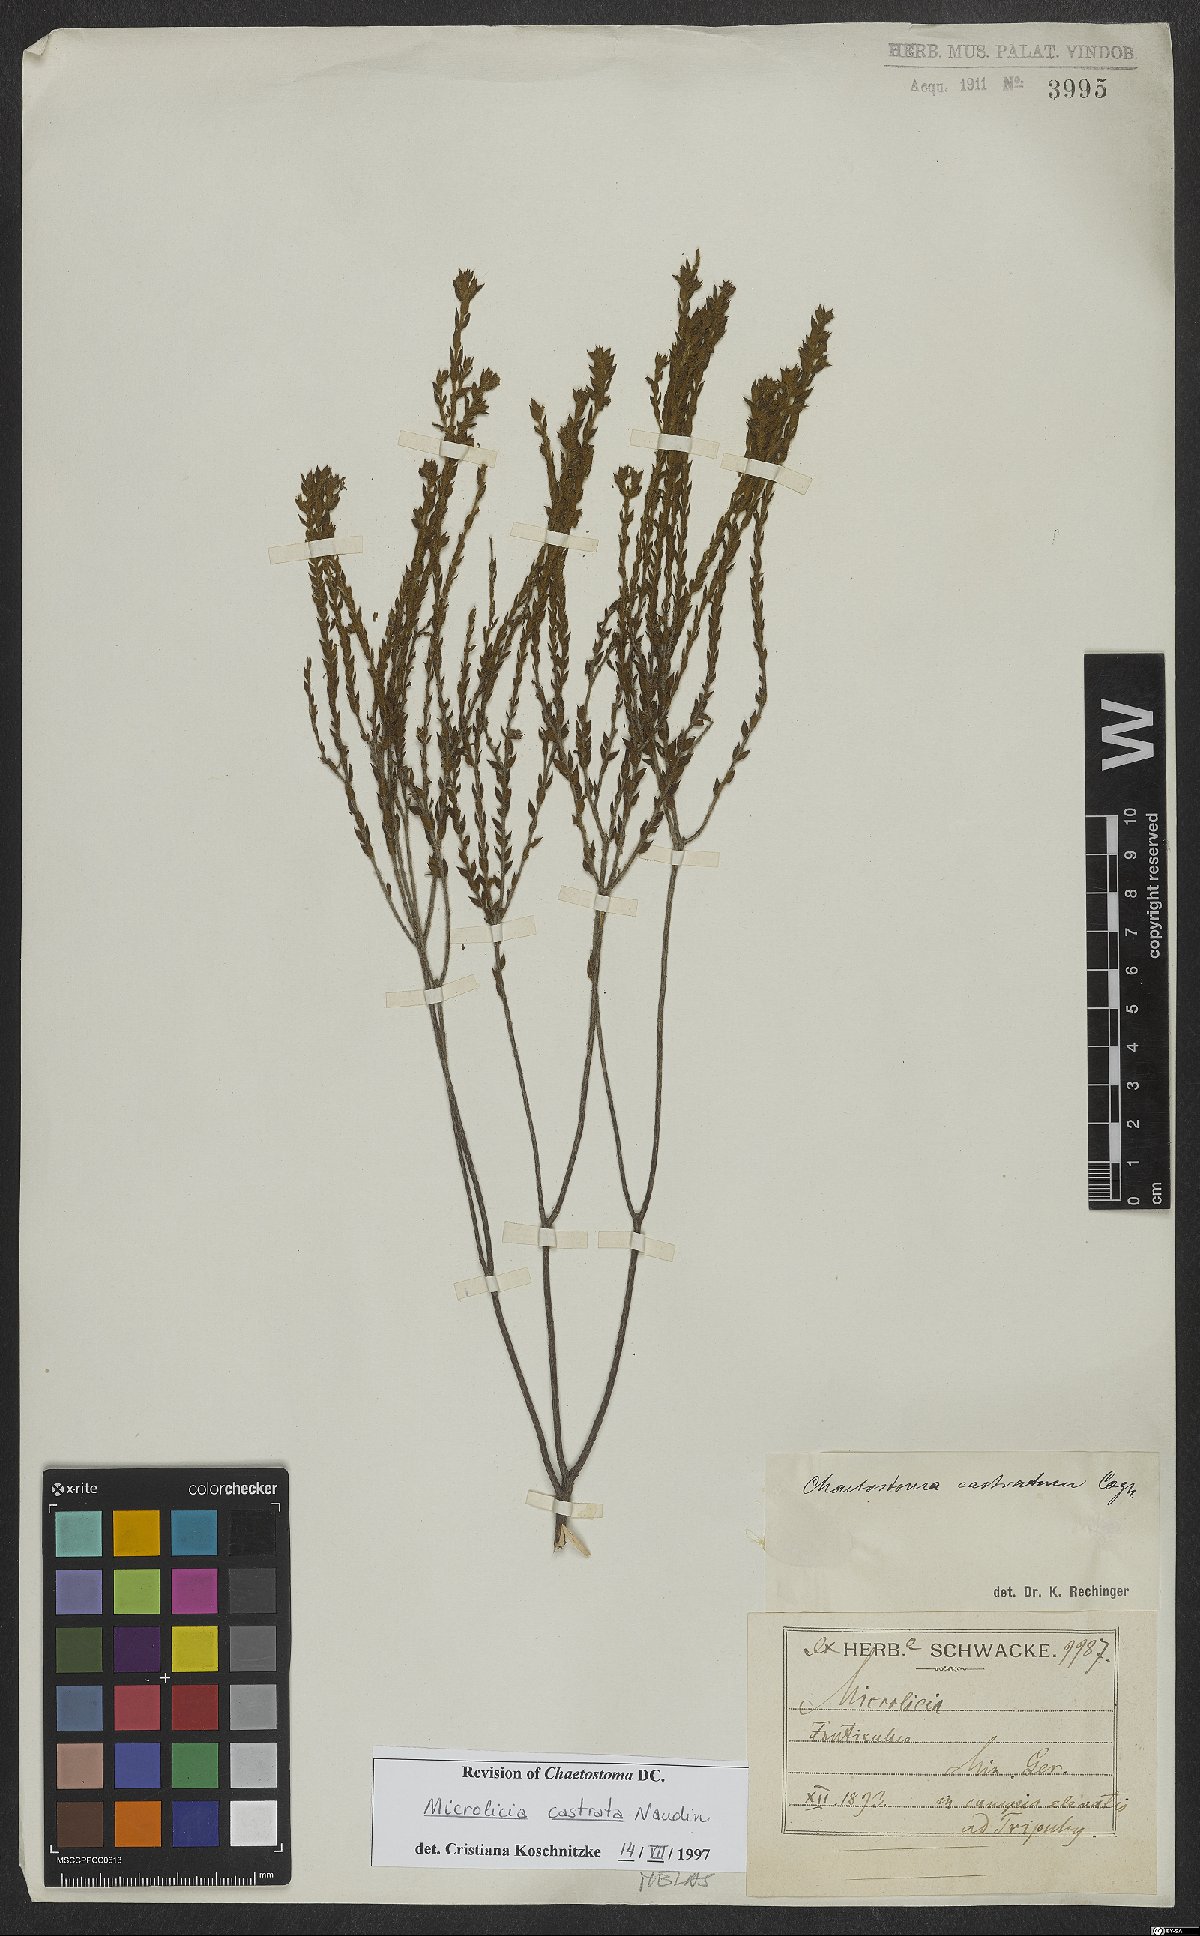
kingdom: Plantae
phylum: Tracheophyta
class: Magnoliopsida
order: Myrtales
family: Melastomataceae
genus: Microlicia
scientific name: Microlicia castrata
